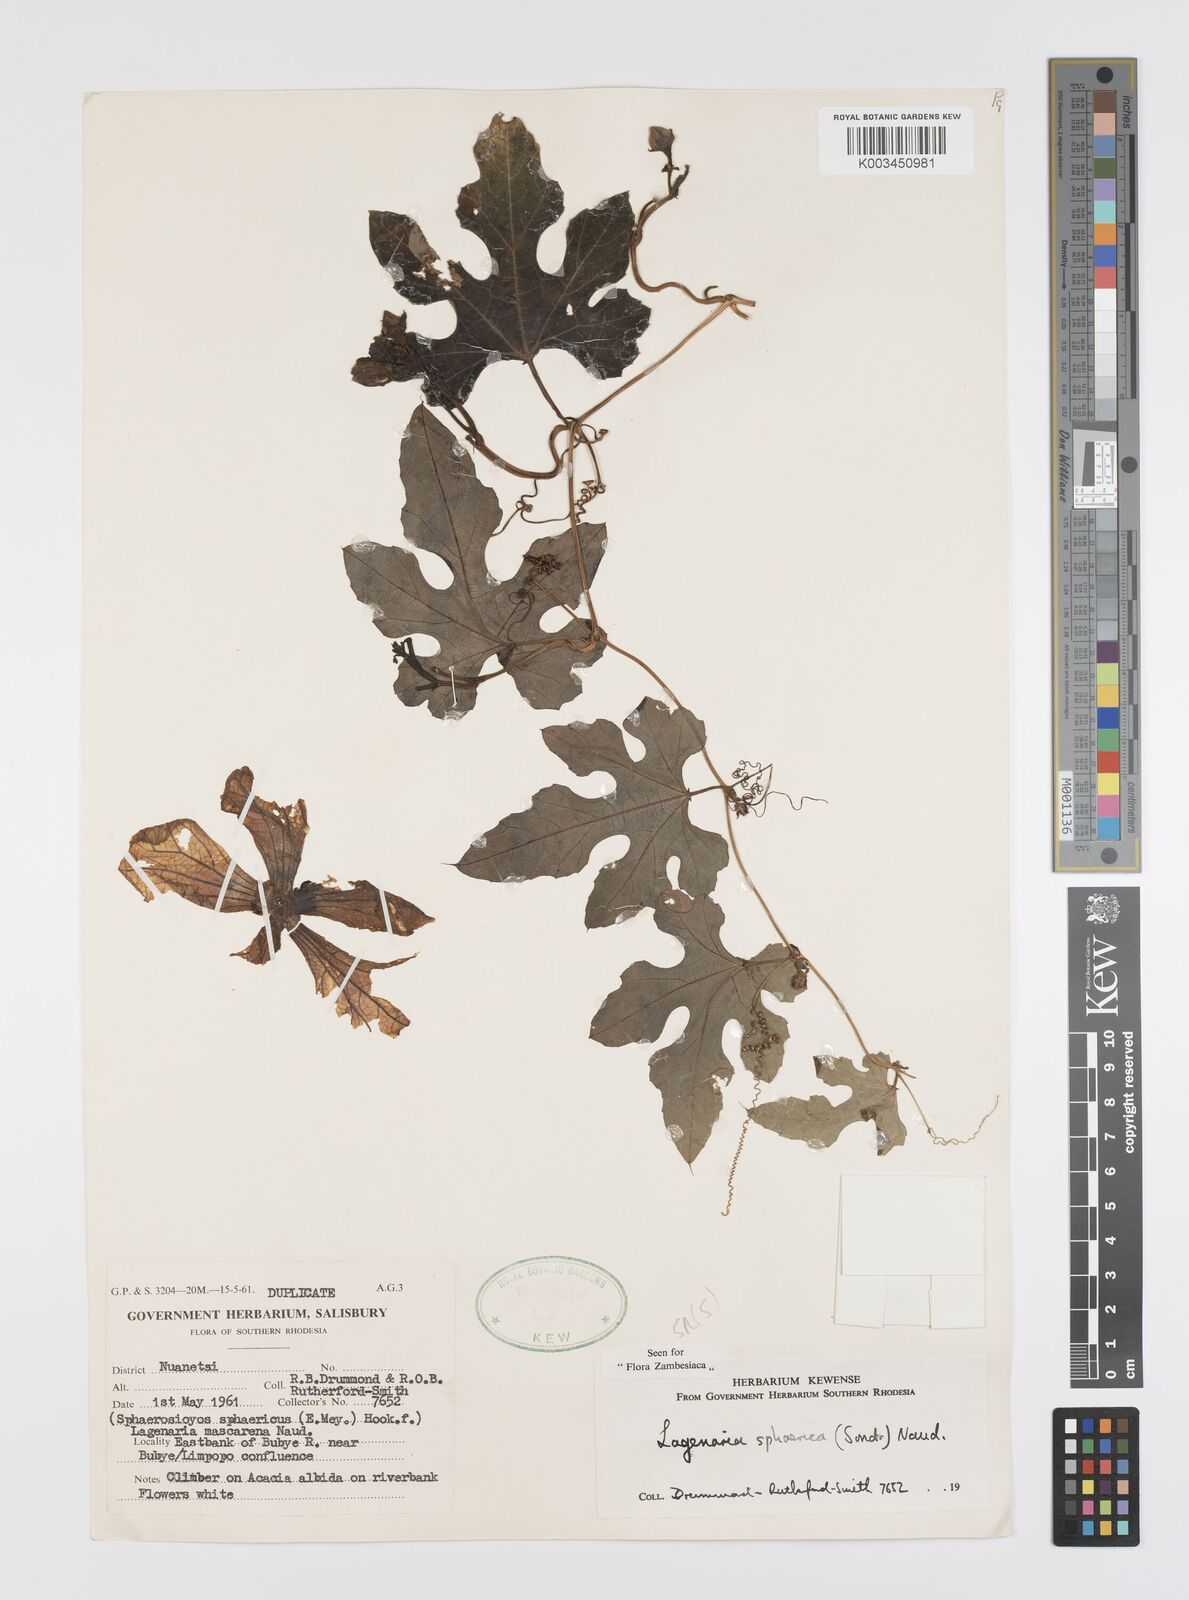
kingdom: Plantae
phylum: Tracheophyta
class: Magnoliopsida
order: Cucurbitales
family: Cucurbitaceae
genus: Lagenaria
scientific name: Lagenaria sphaerica
